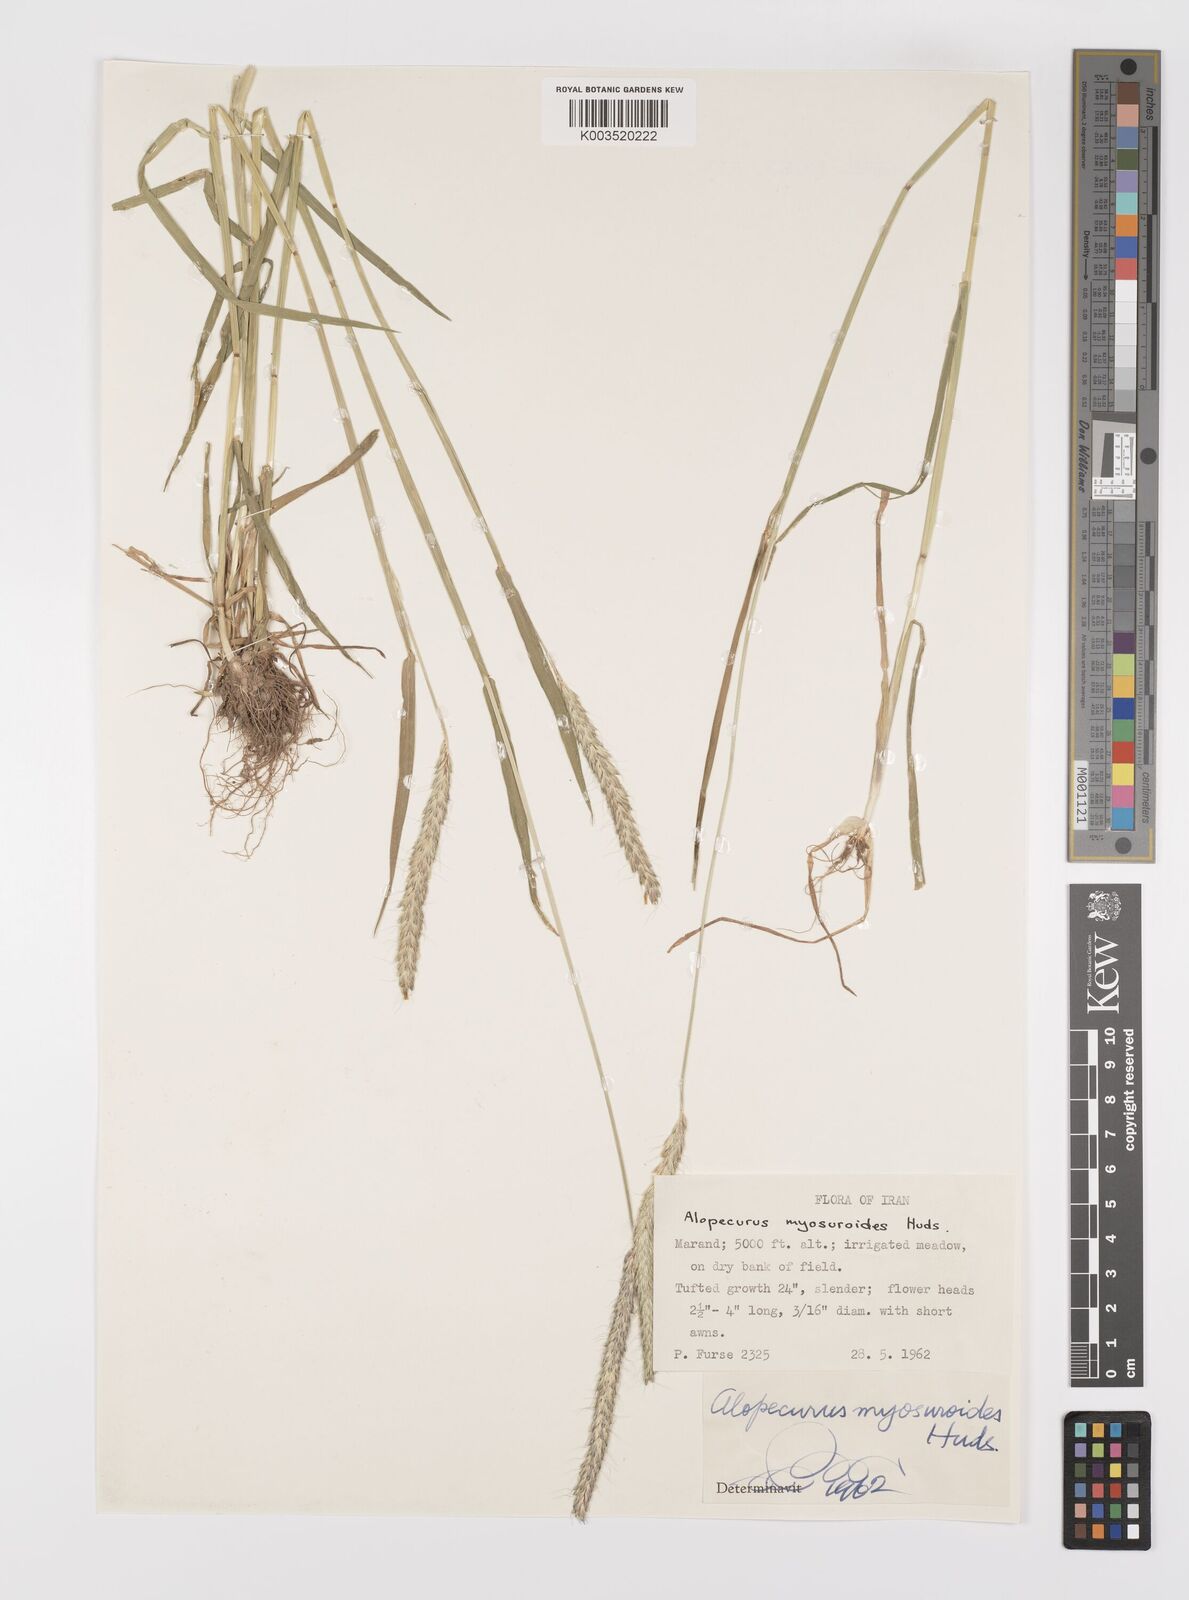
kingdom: Plantae
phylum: Tracheophyta
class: Liliopsida
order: Poales
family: Poaceae
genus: Alopecurus
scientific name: Alopecurus myosuroides
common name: Black-grass
